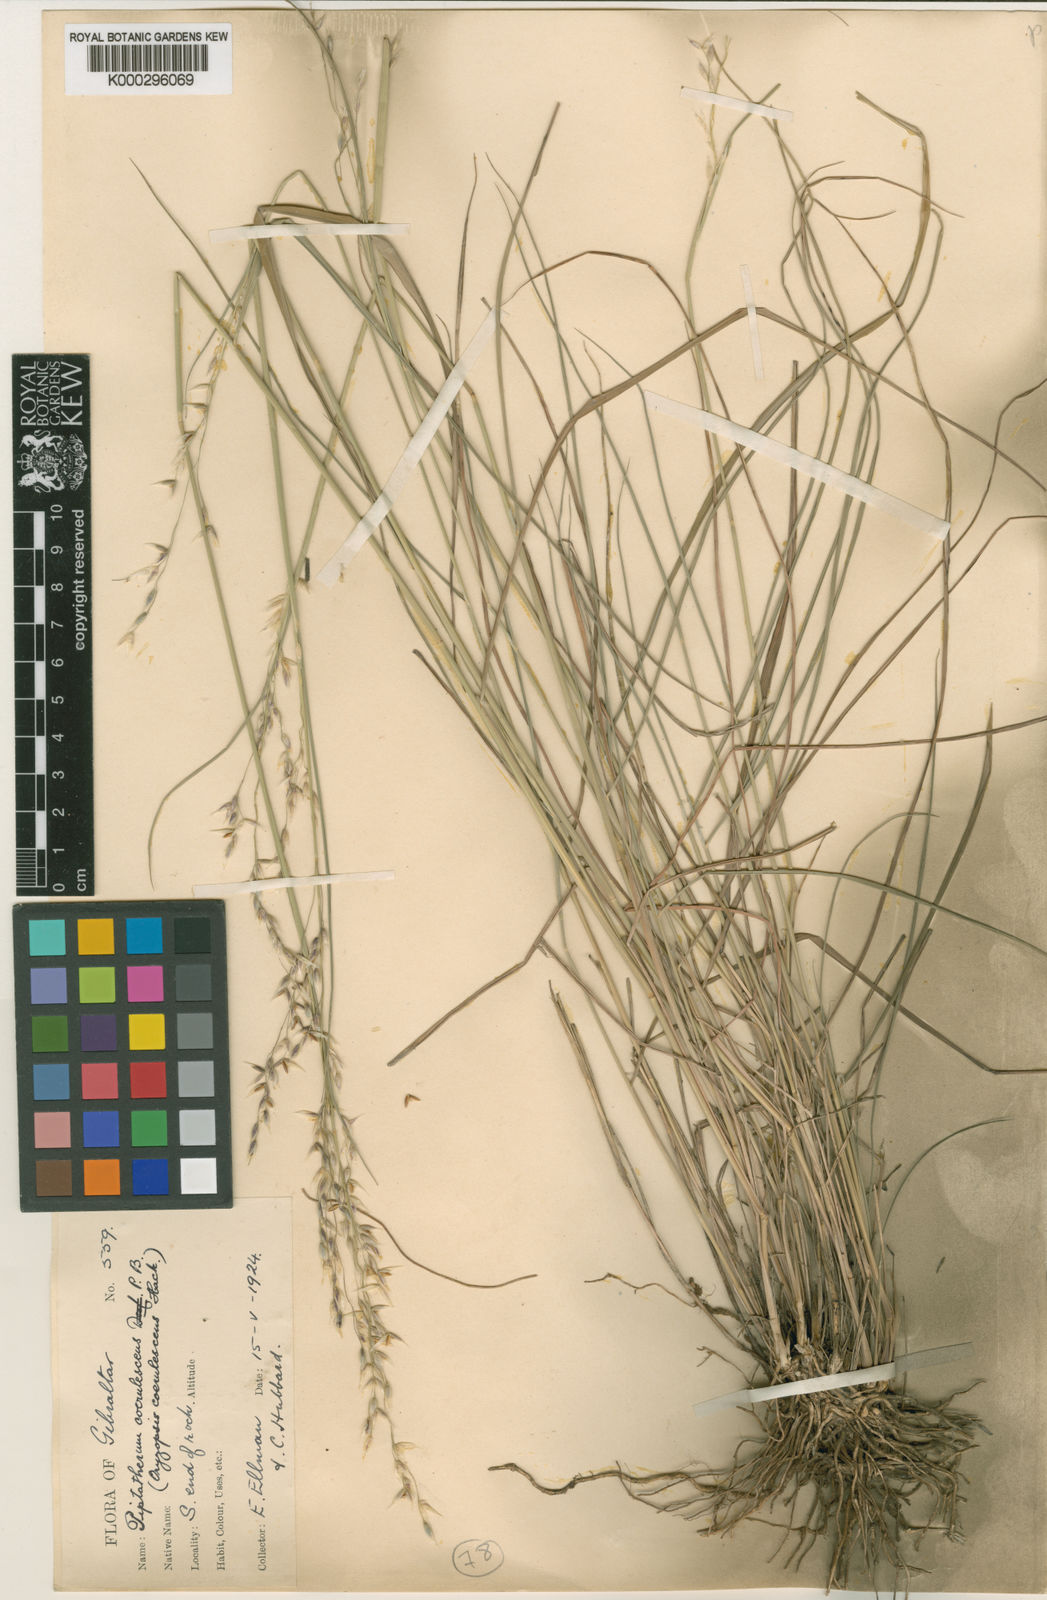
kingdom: Plantae
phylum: Tracheophyta
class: Magnoliopsida
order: Fabales
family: Fabaceae
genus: Cynometra
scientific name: Cynometra ramiflora
